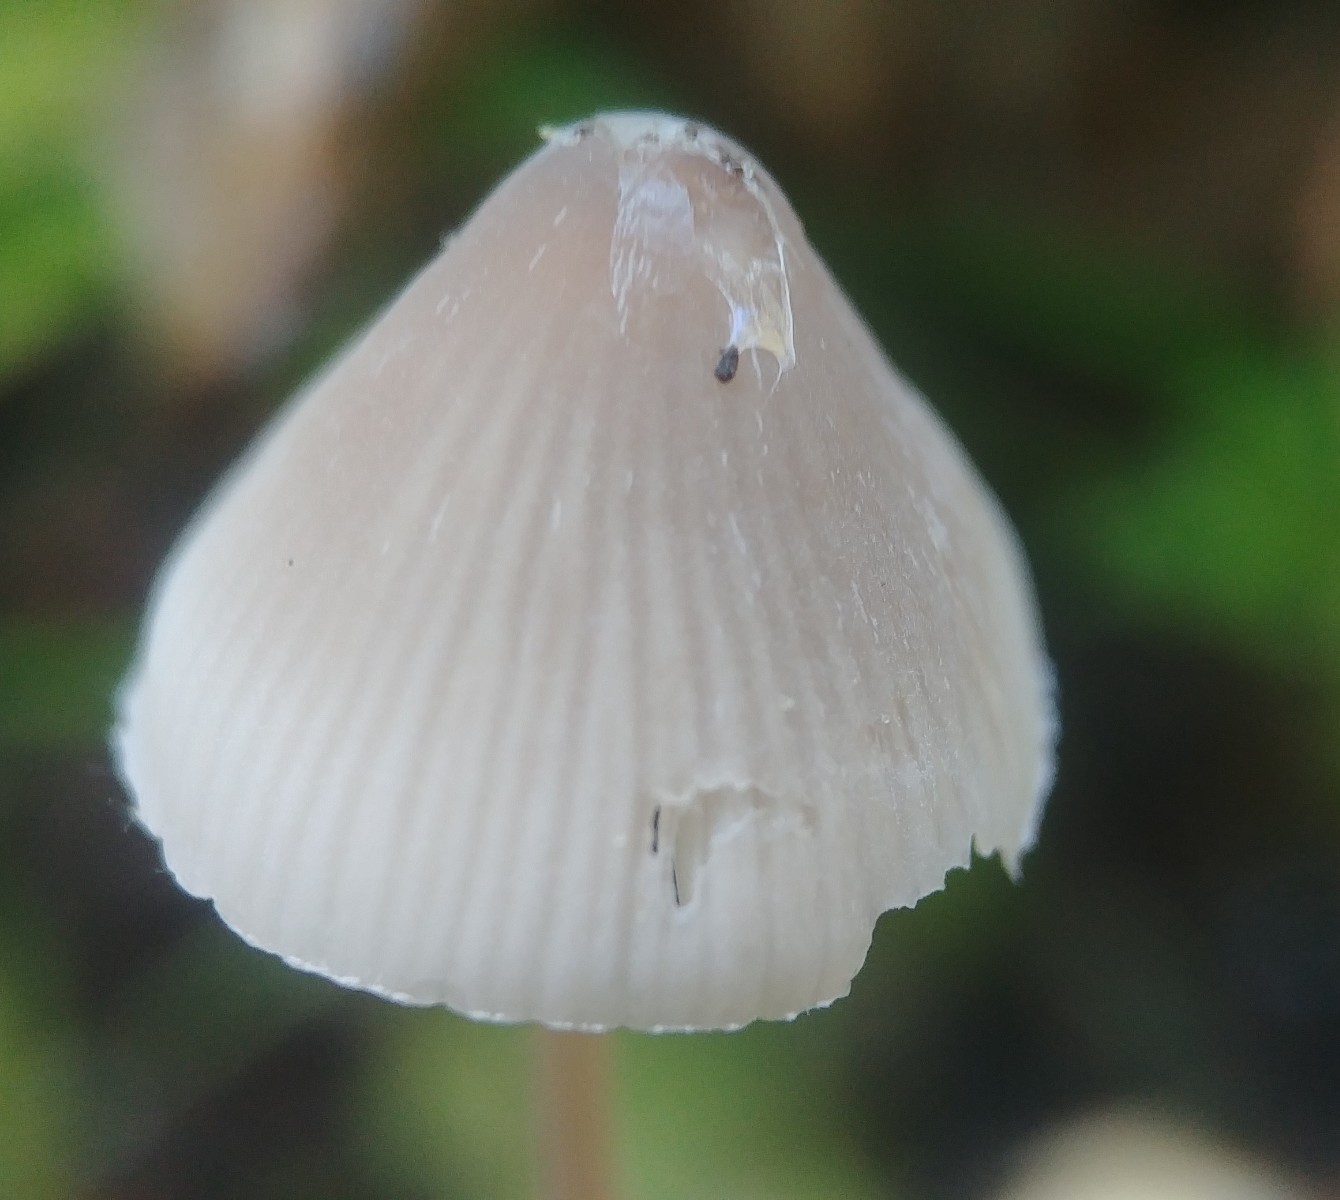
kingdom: Fungi
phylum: Basidiomycota
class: Agaricomycetes
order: Agaricales
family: Mycenaceae
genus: Mycena
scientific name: Mycena metata
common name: rødlig huesvamp
